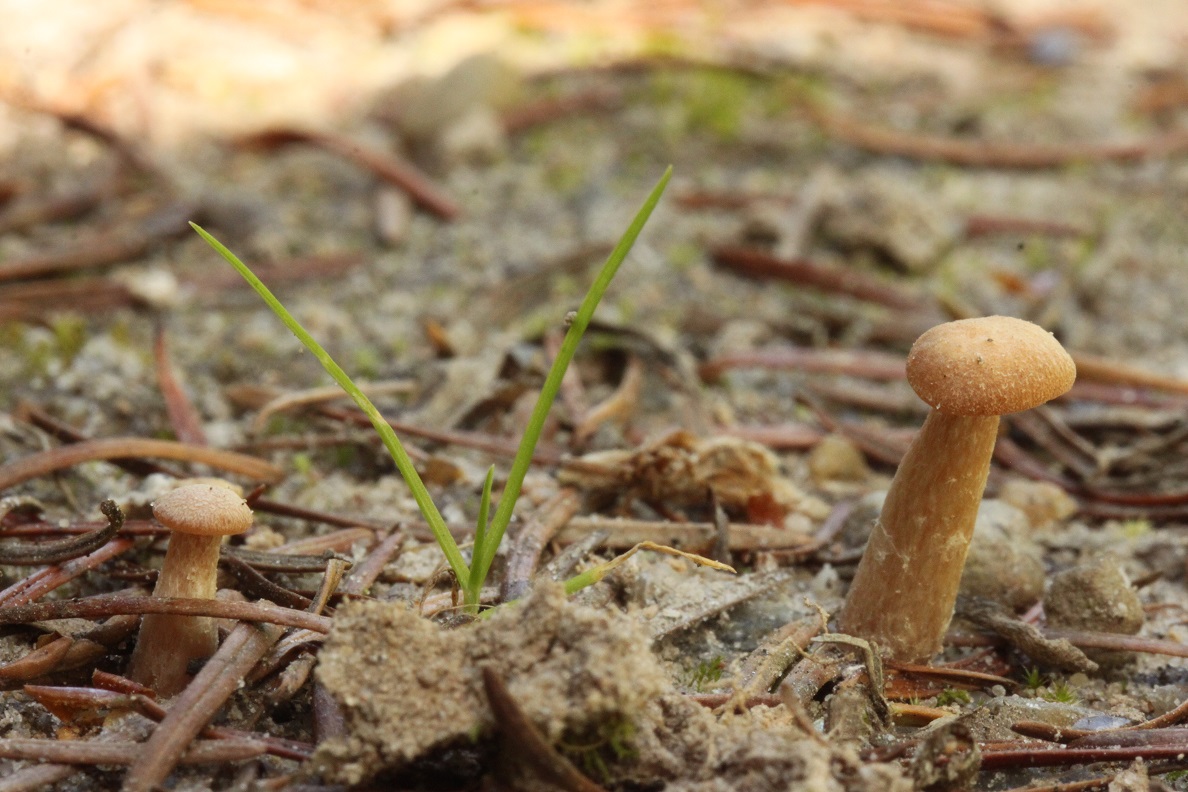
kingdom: Fungi
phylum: Basidiomycota
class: Agaricomycetes
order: Agaricales
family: Hydnangiaceae
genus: Laccaria
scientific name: Laccaria laccata
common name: rød ametysthat
